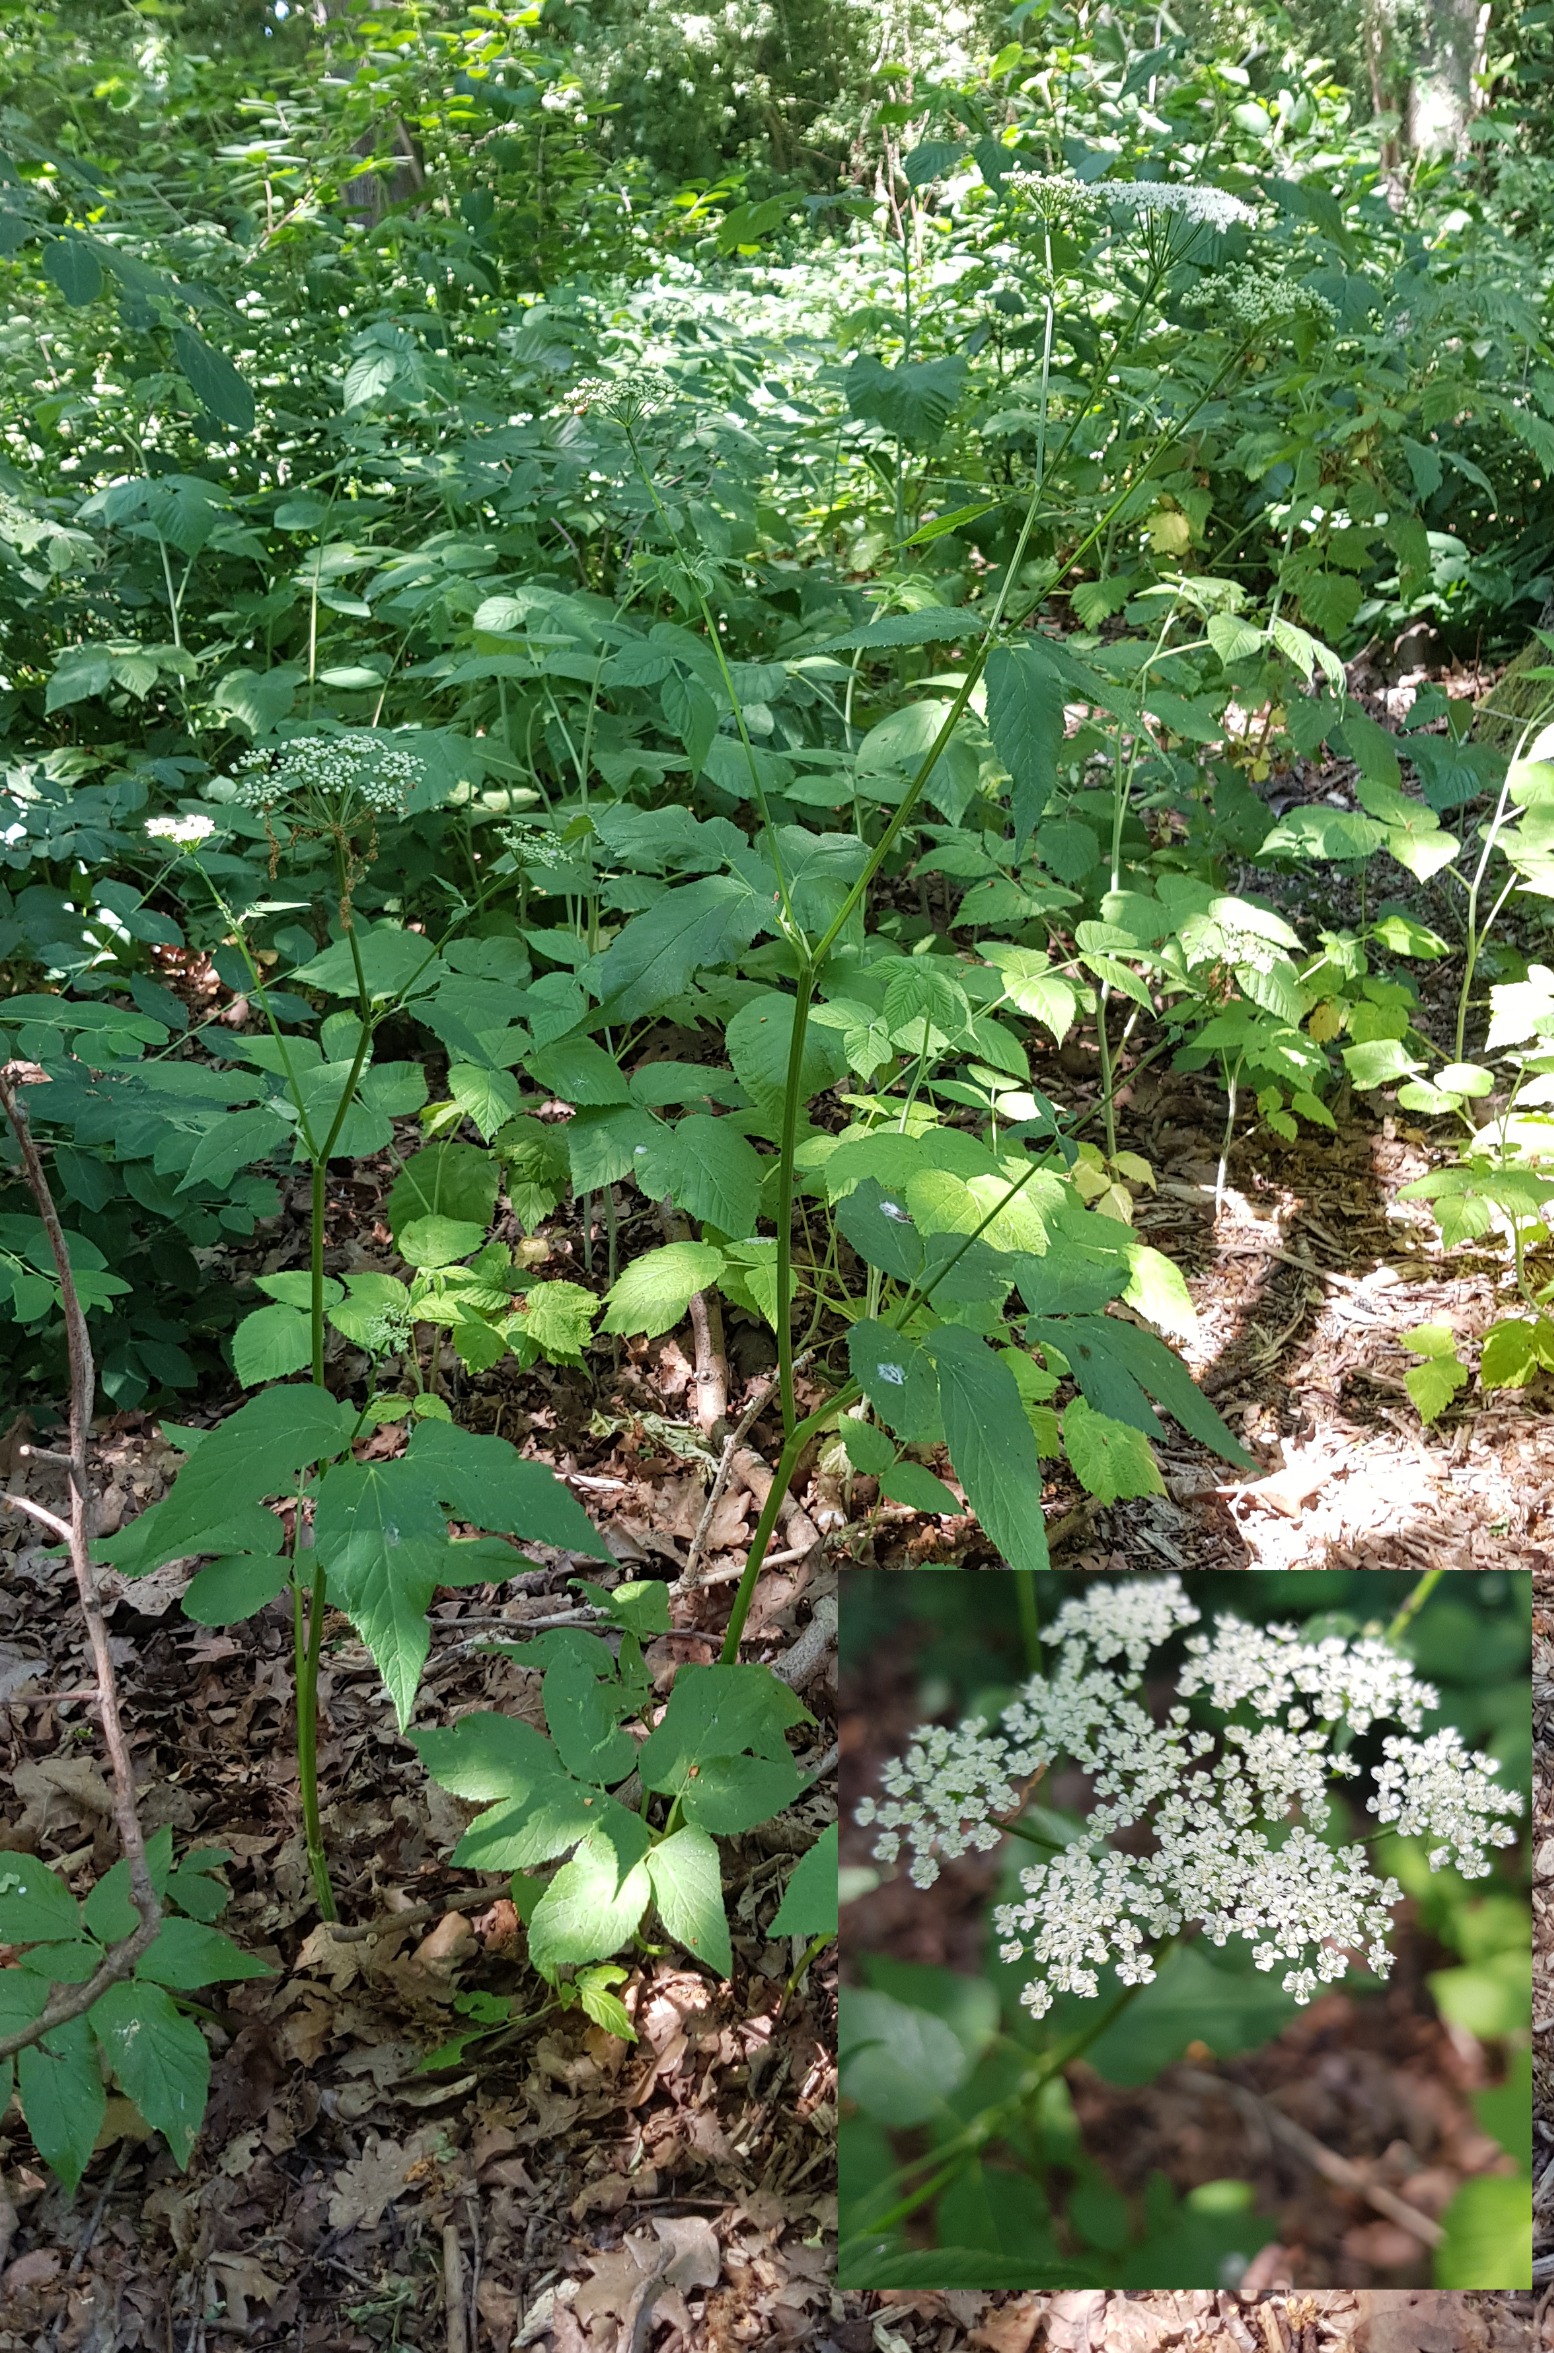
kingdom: Plantae
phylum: Tracheophyta
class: Magnoliopsida
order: Apiales
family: Apiaceae
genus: Aegopodium
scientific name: Aegopodium podagraria
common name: Skvalderkål
